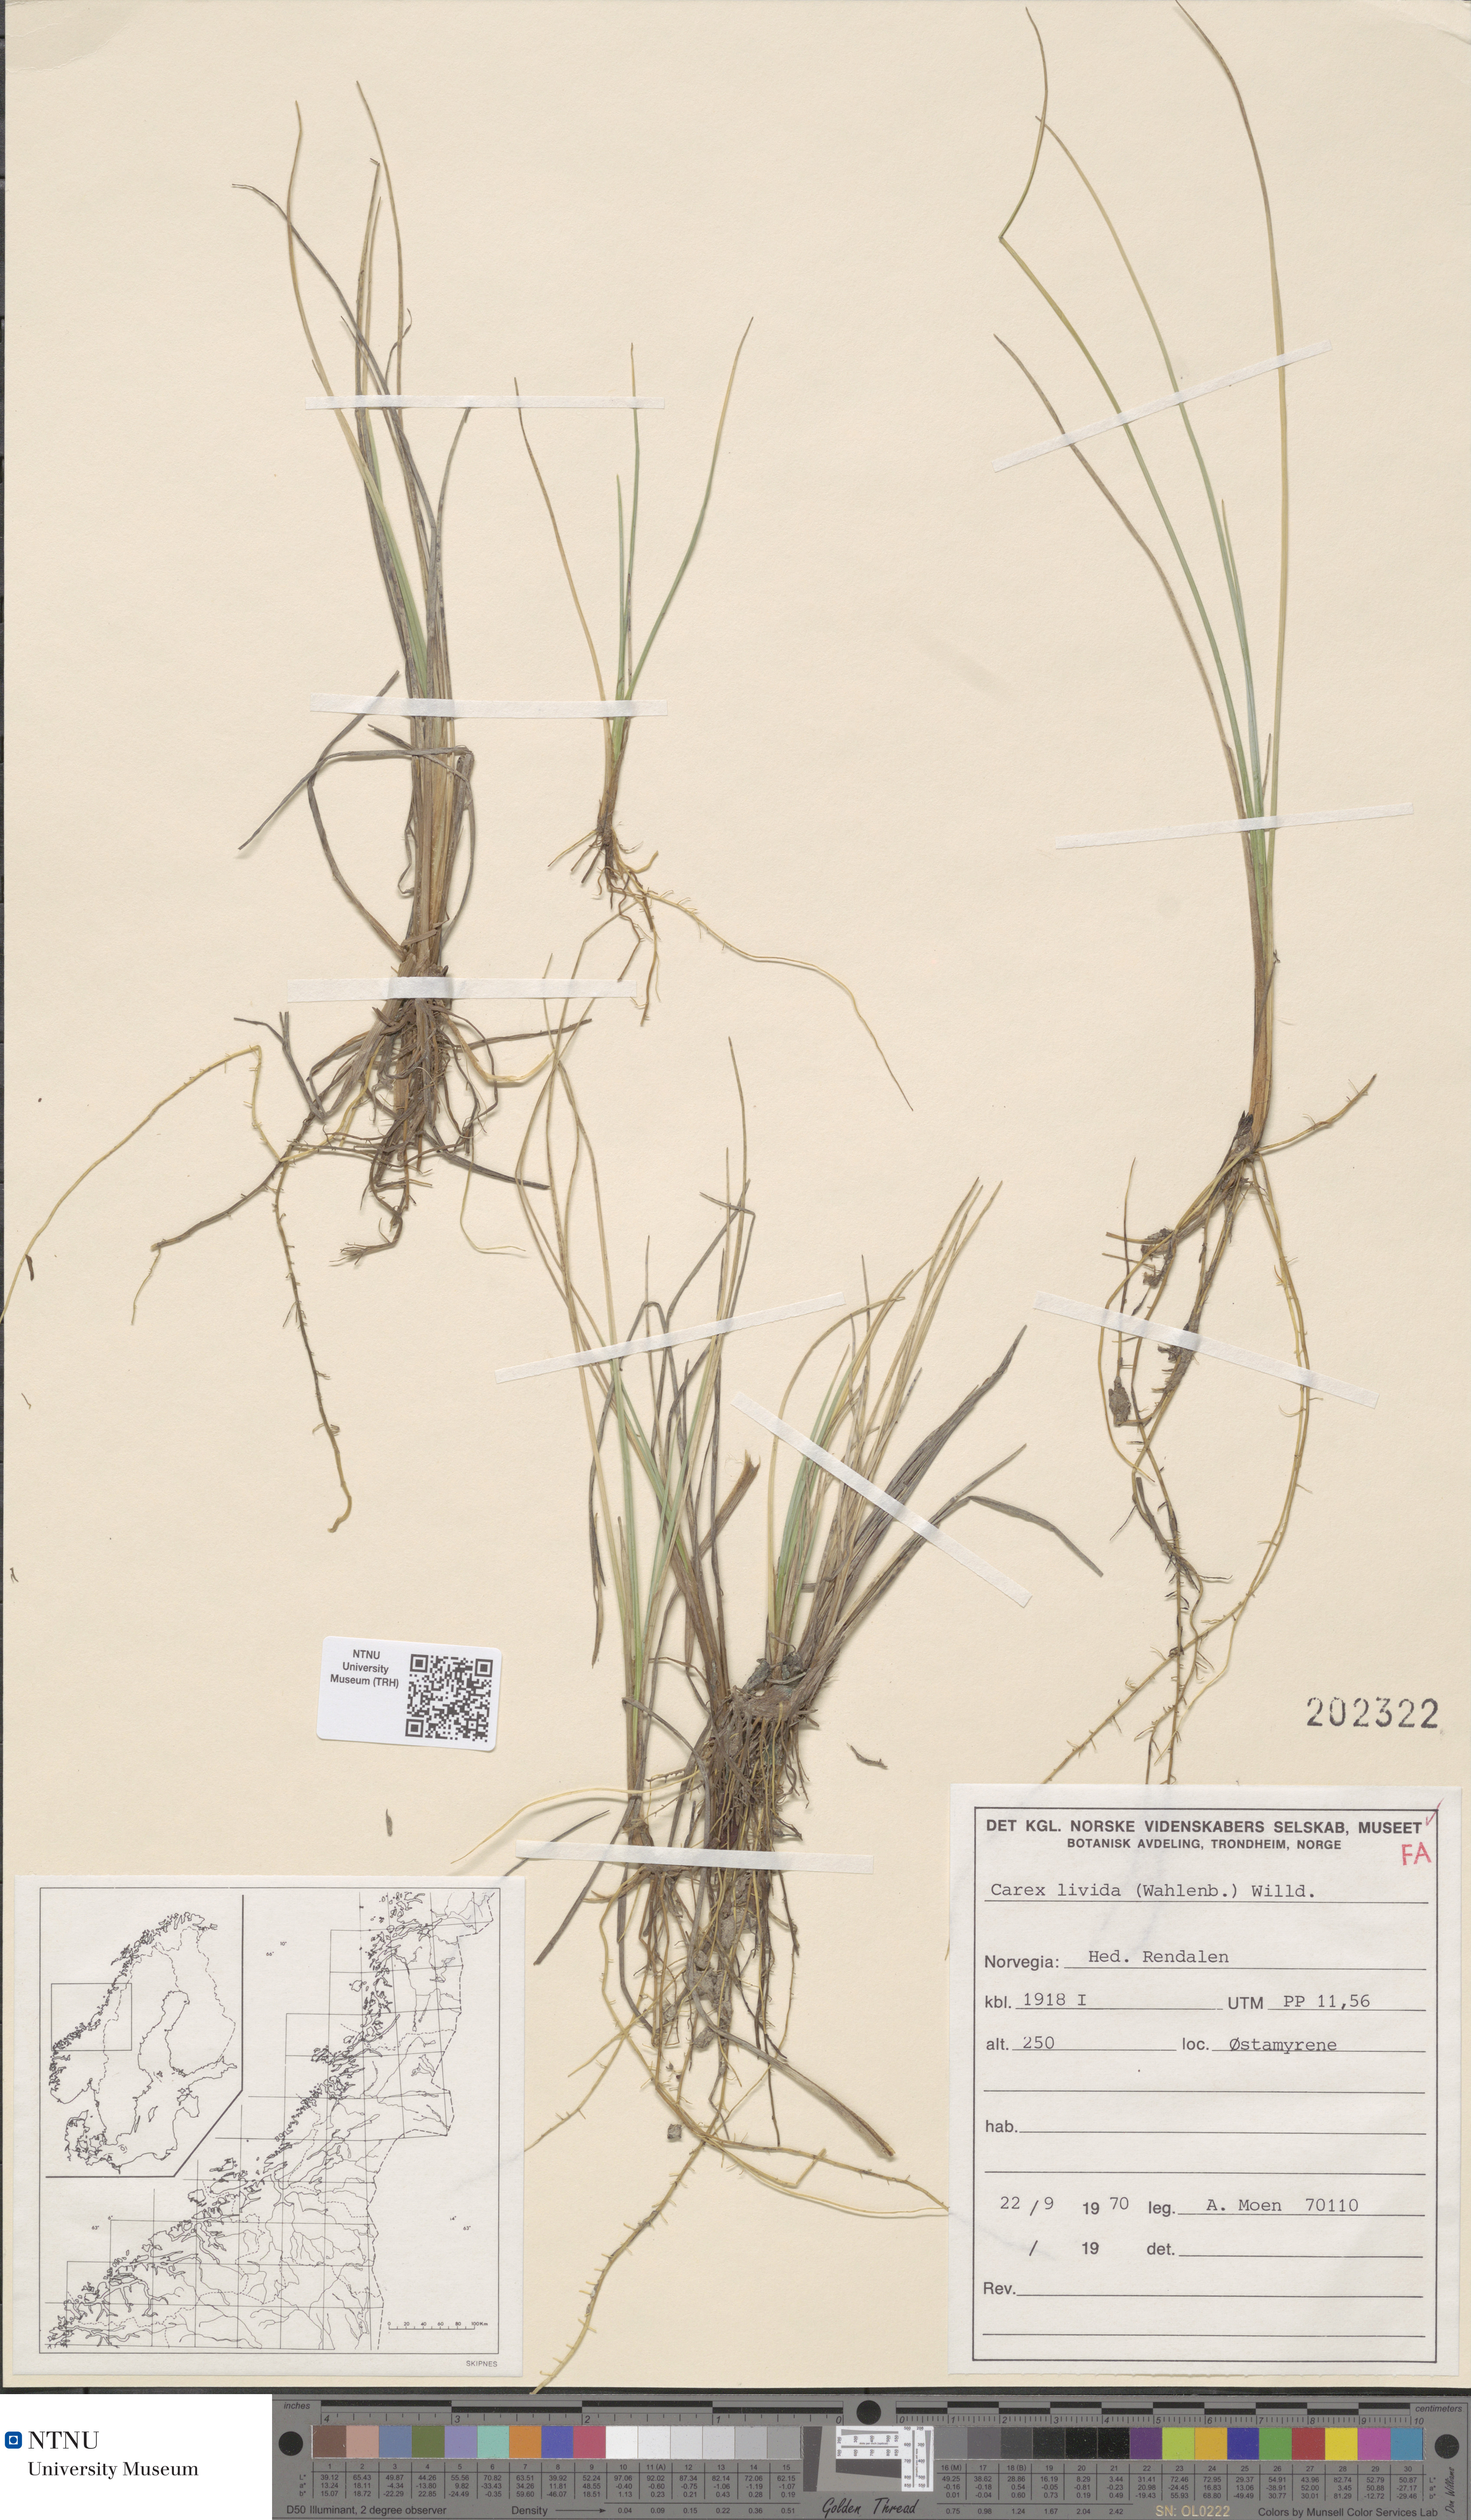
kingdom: Plantae
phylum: Tracheophyta
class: Liliopsida
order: Poales
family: Cyperaceae
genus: Carex
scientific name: Carex livida
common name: Livid sedge
